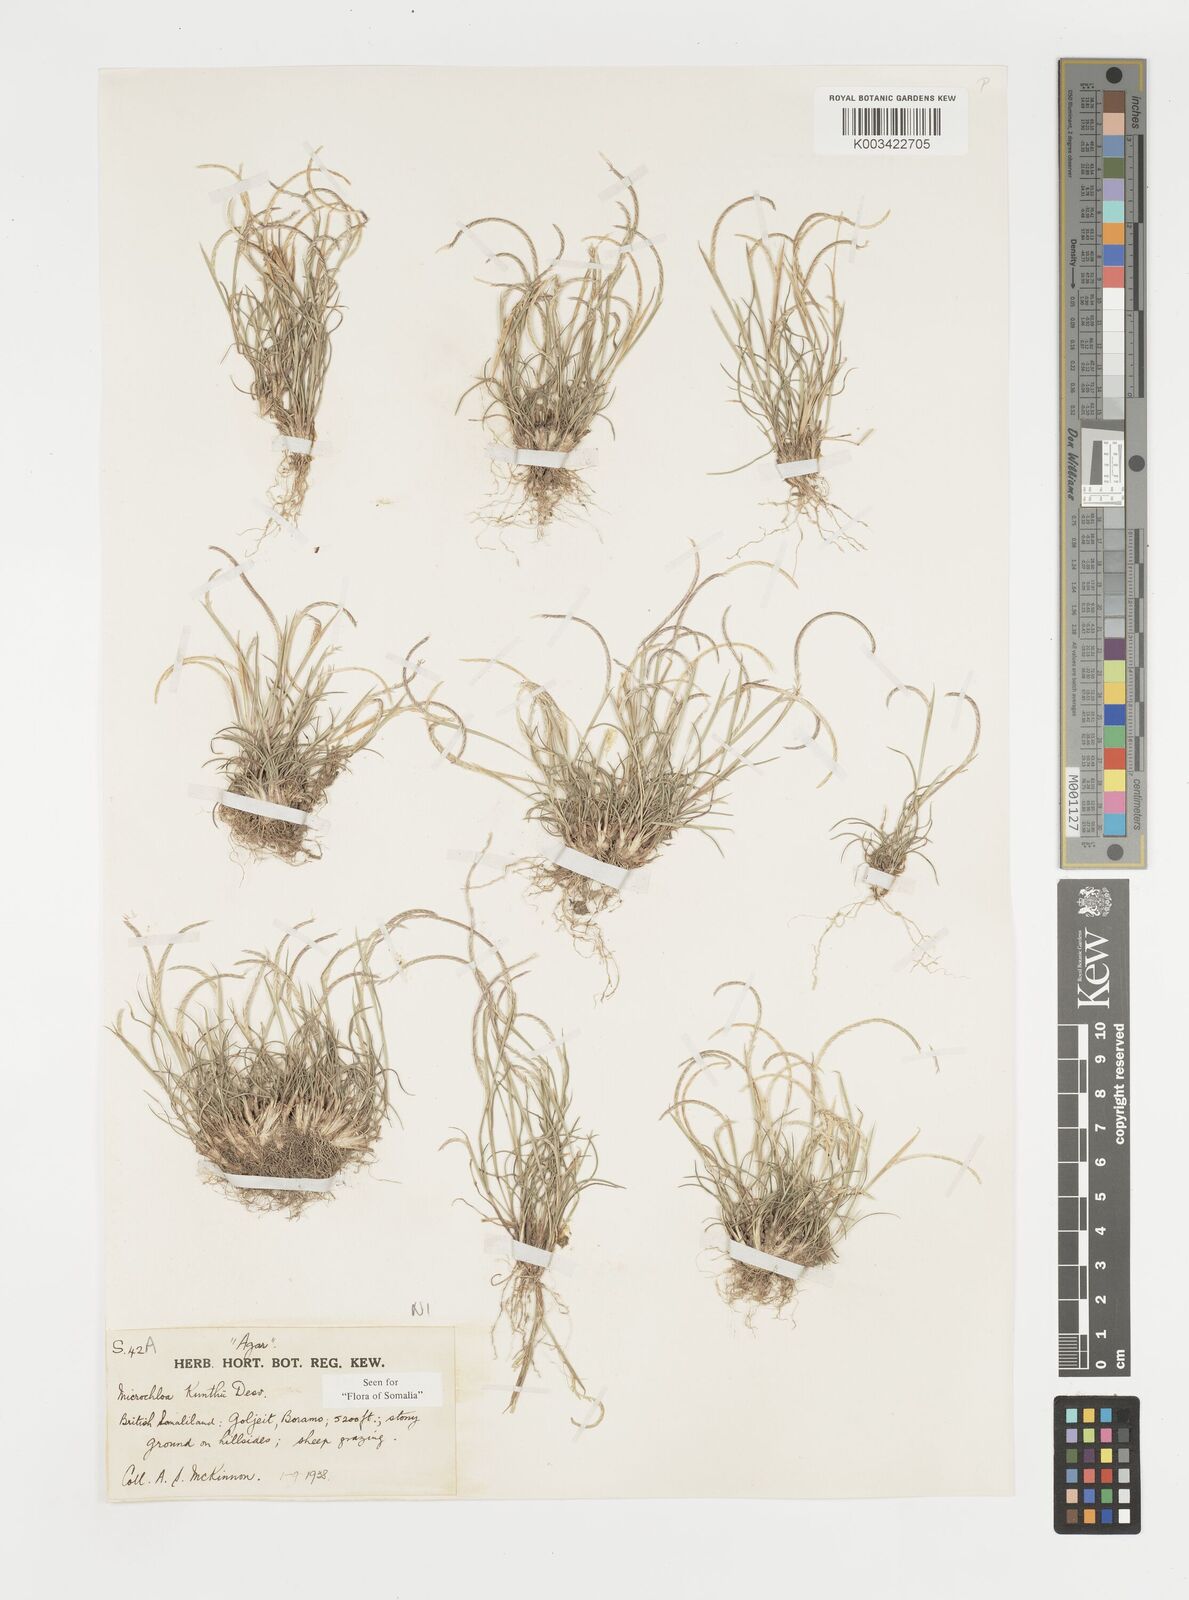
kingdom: Plantae
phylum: Tracheophyta
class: Liliopsida
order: Poales
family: Poaceae
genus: Microchloa
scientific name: Microchloa kunthii
